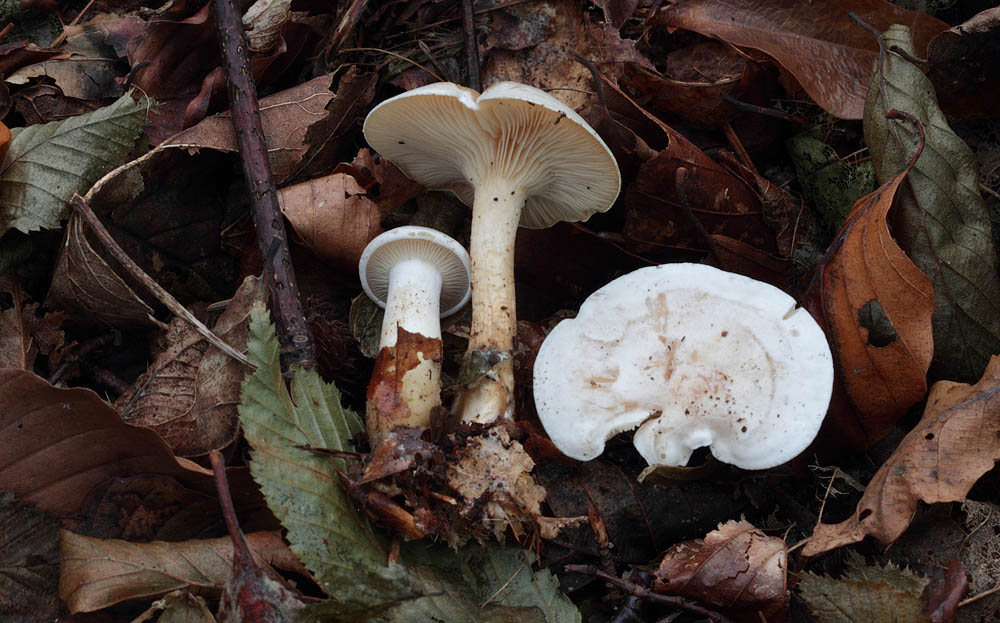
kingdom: Fungi
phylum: Basidiomycota
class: Agaricomycetes
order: Agaricales
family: Tricholomataceae
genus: Clitocybe
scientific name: Clitocybe phyllophila
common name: løv-tragthat
